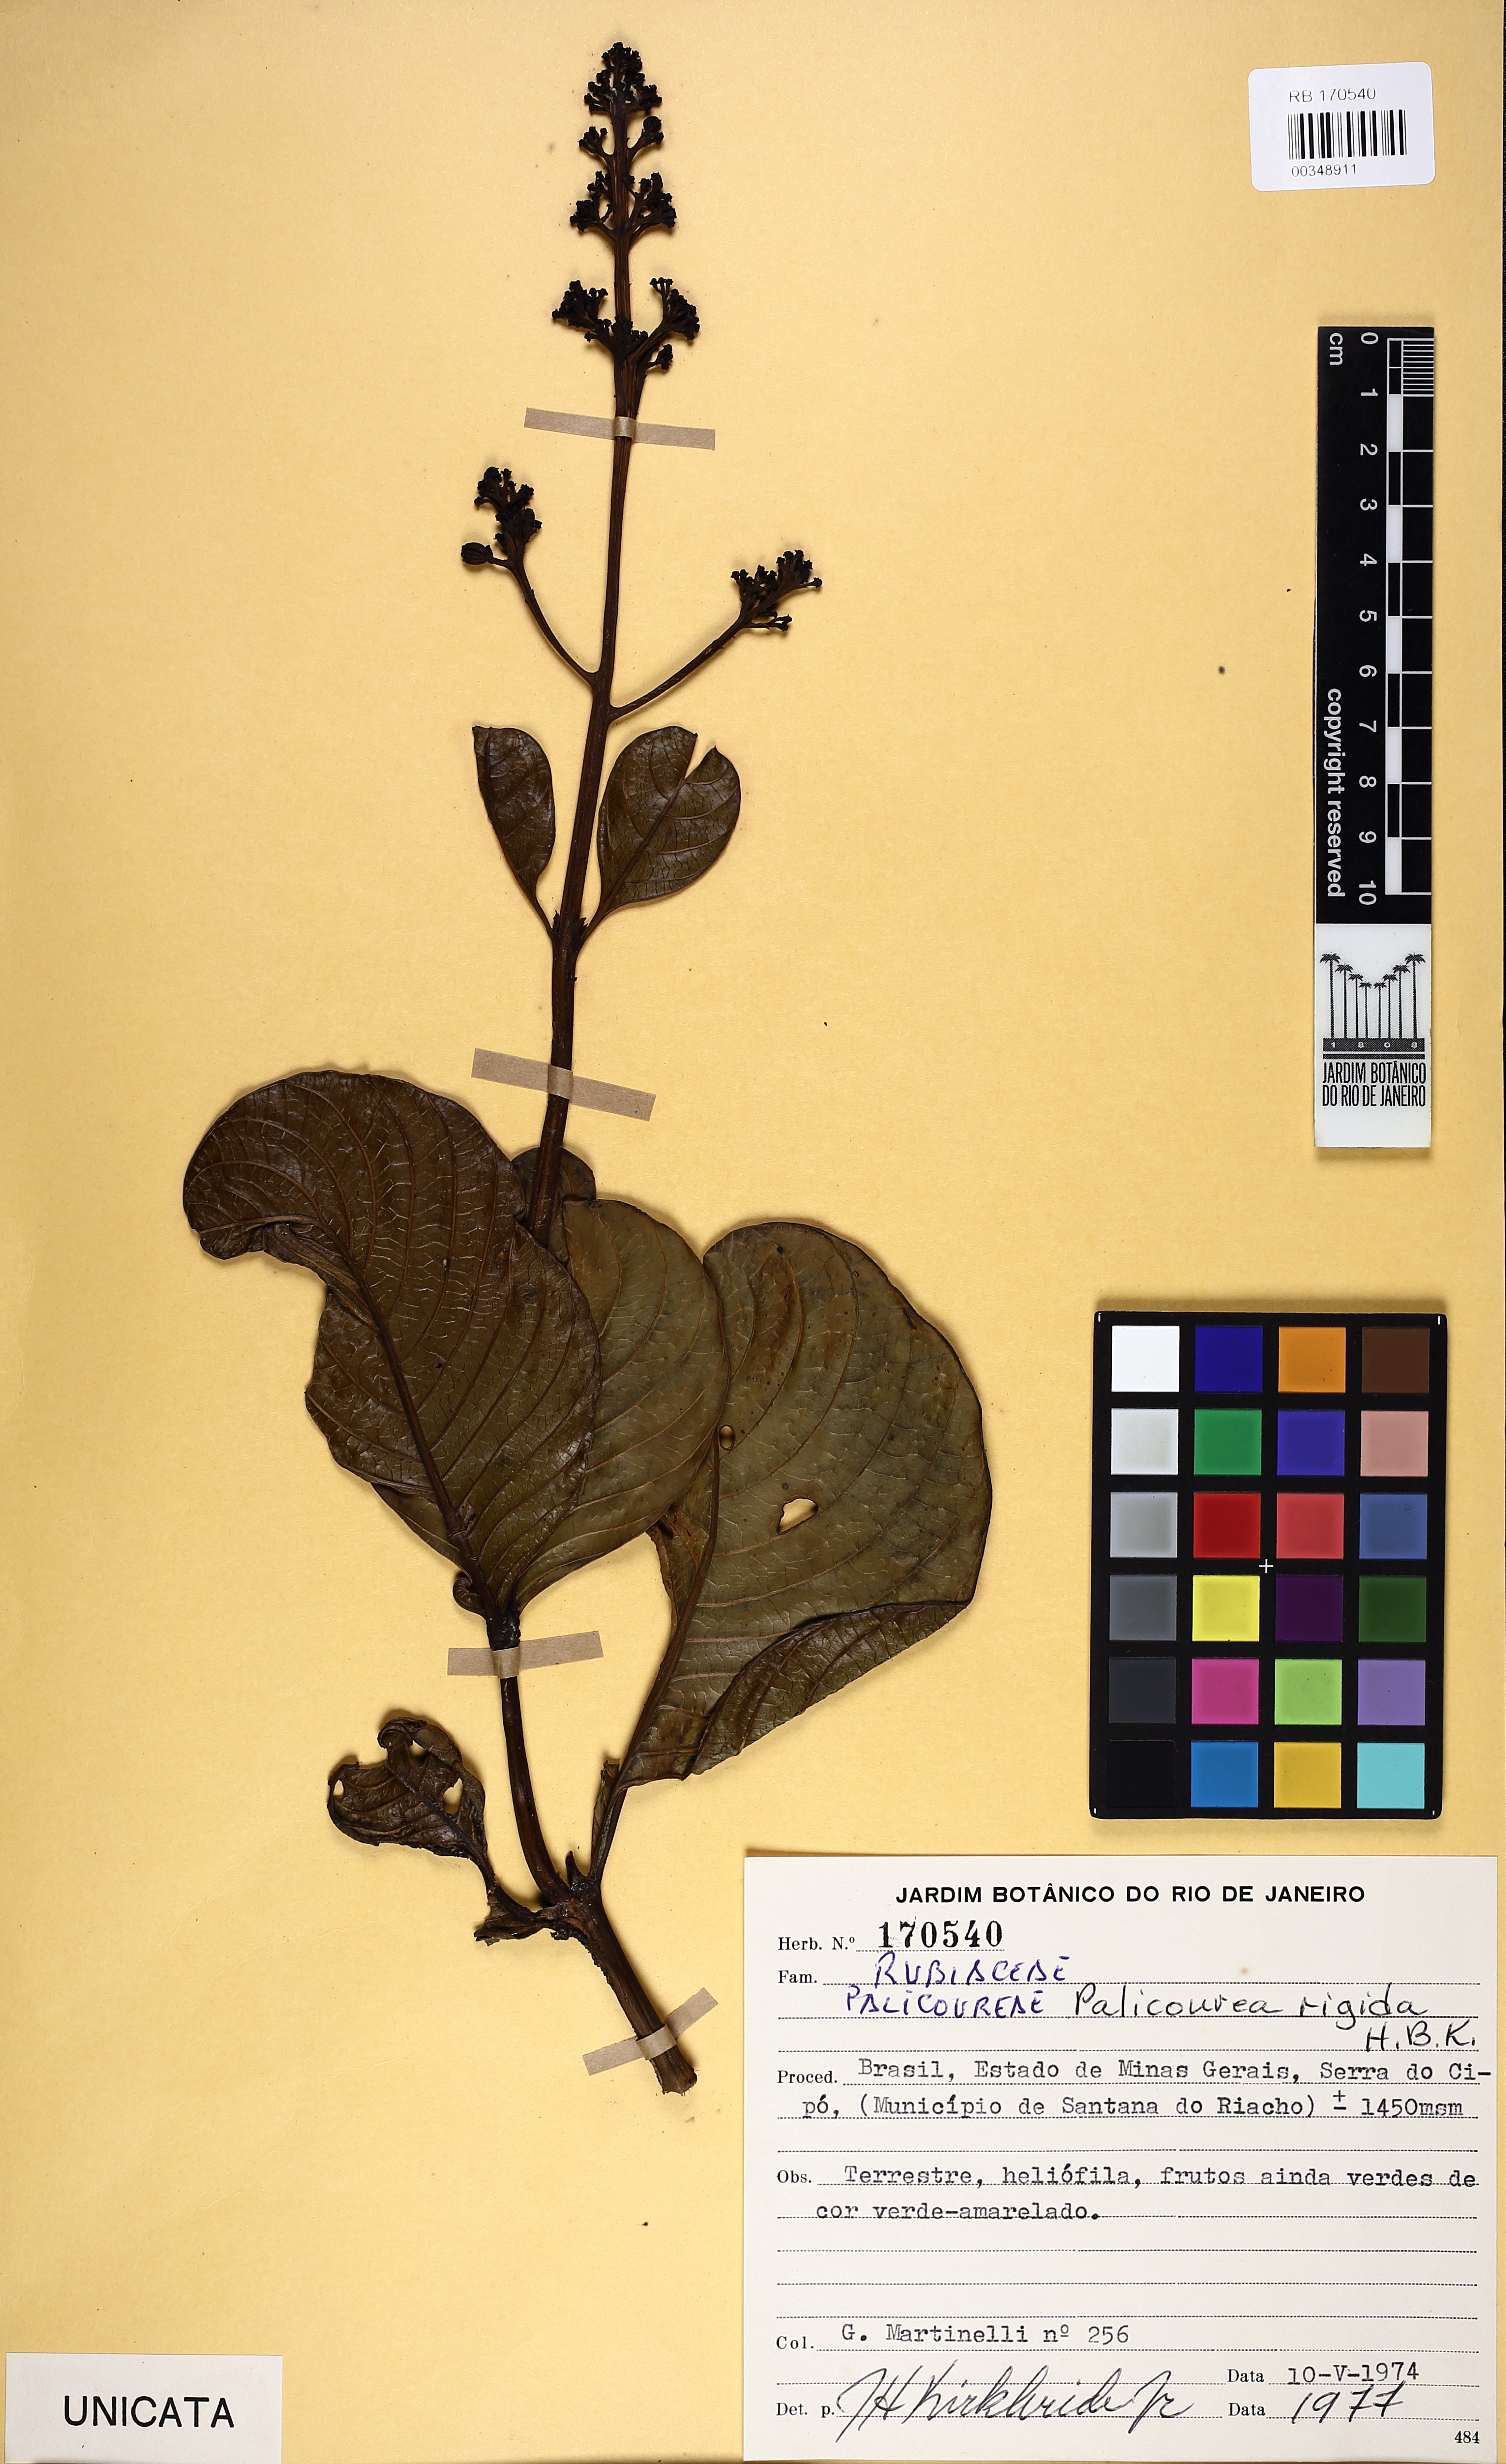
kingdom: Plantae
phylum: Tracheophyta
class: Magnoliopsida
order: Gentianales
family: Rubiaceae
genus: Palicourea
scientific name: Palicourea rigida
